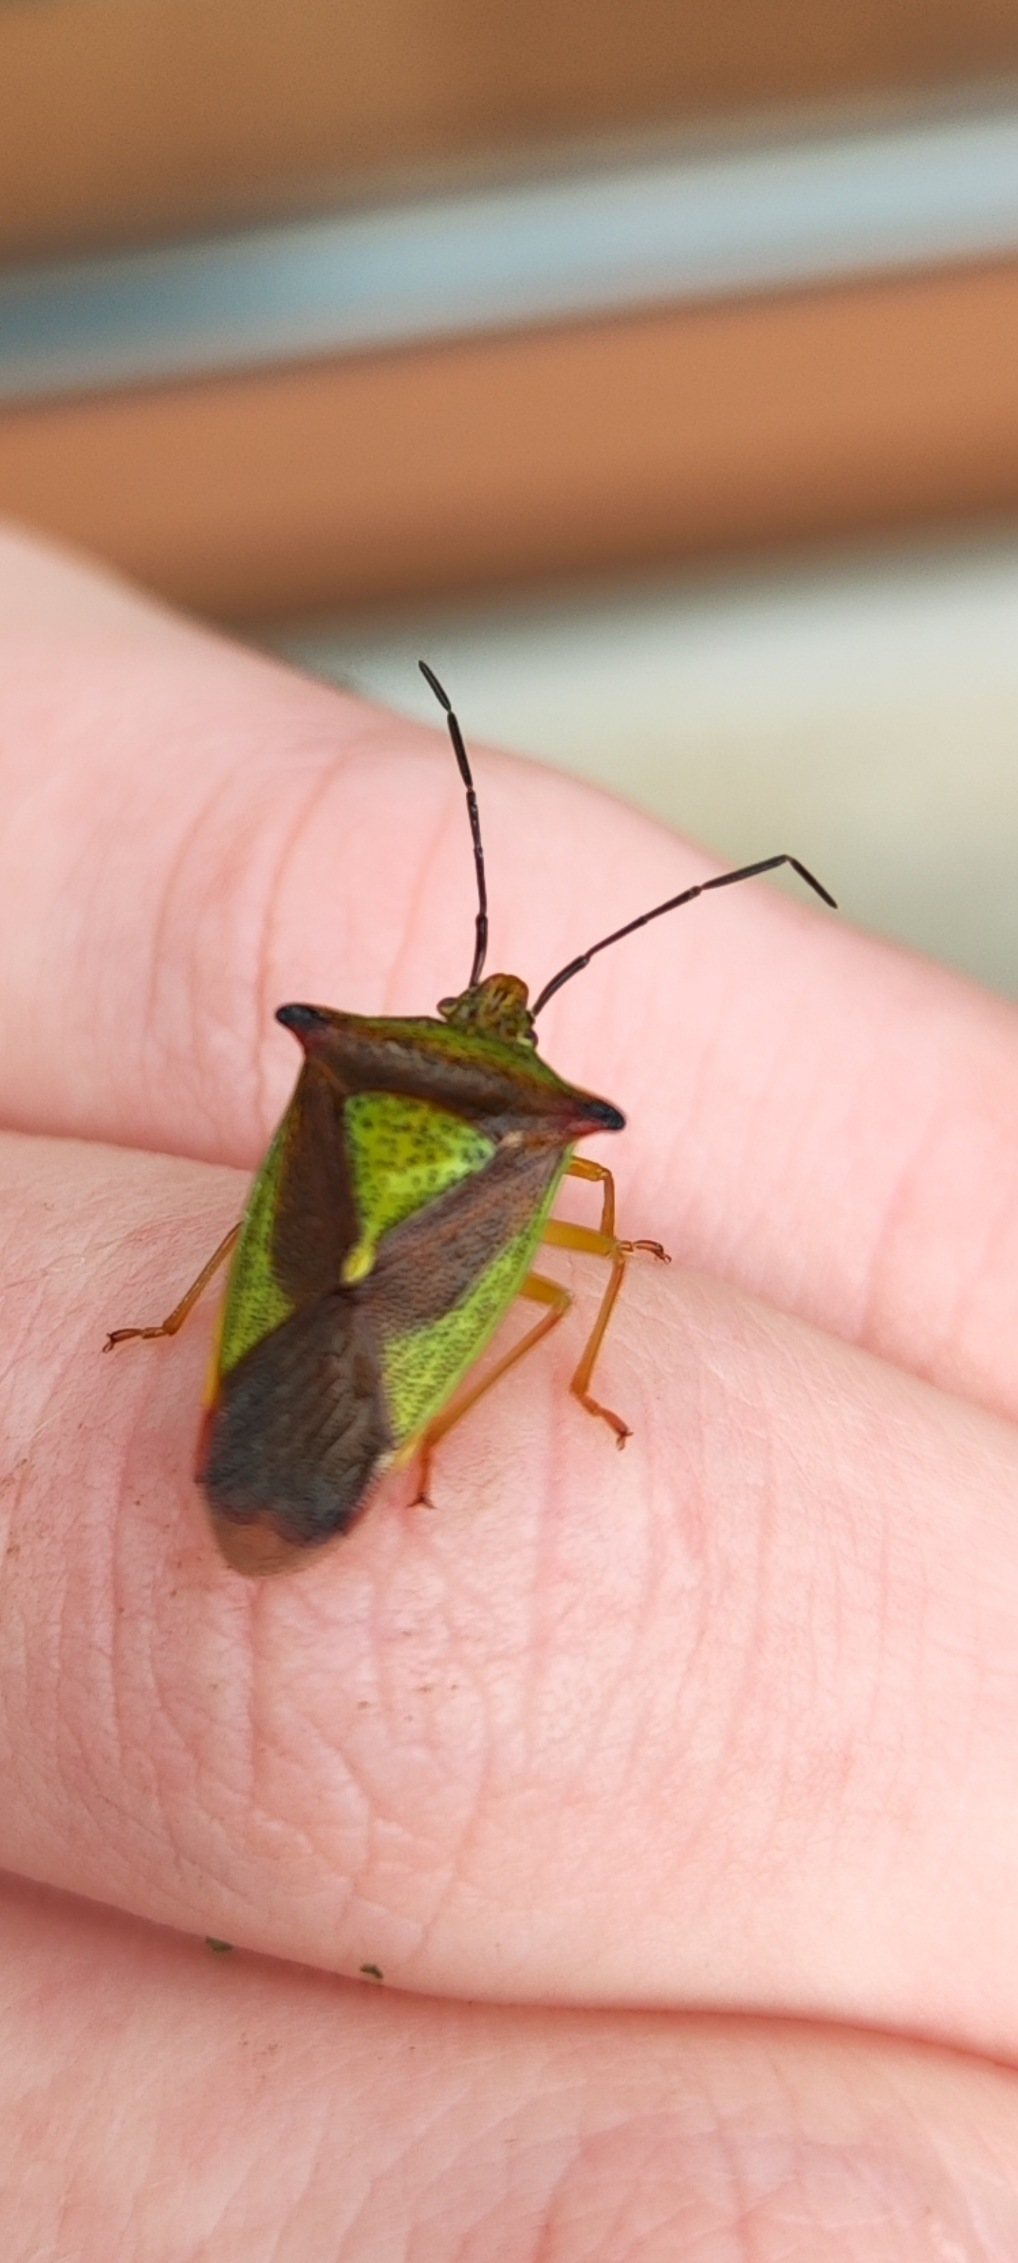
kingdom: Animalia
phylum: Arthropoda
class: Insecta
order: Hemiptera
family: Acanthosomatidae
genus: Acanthosoma
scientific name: Acanthosoma haemorrhoidale
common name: Stor løvtæge
